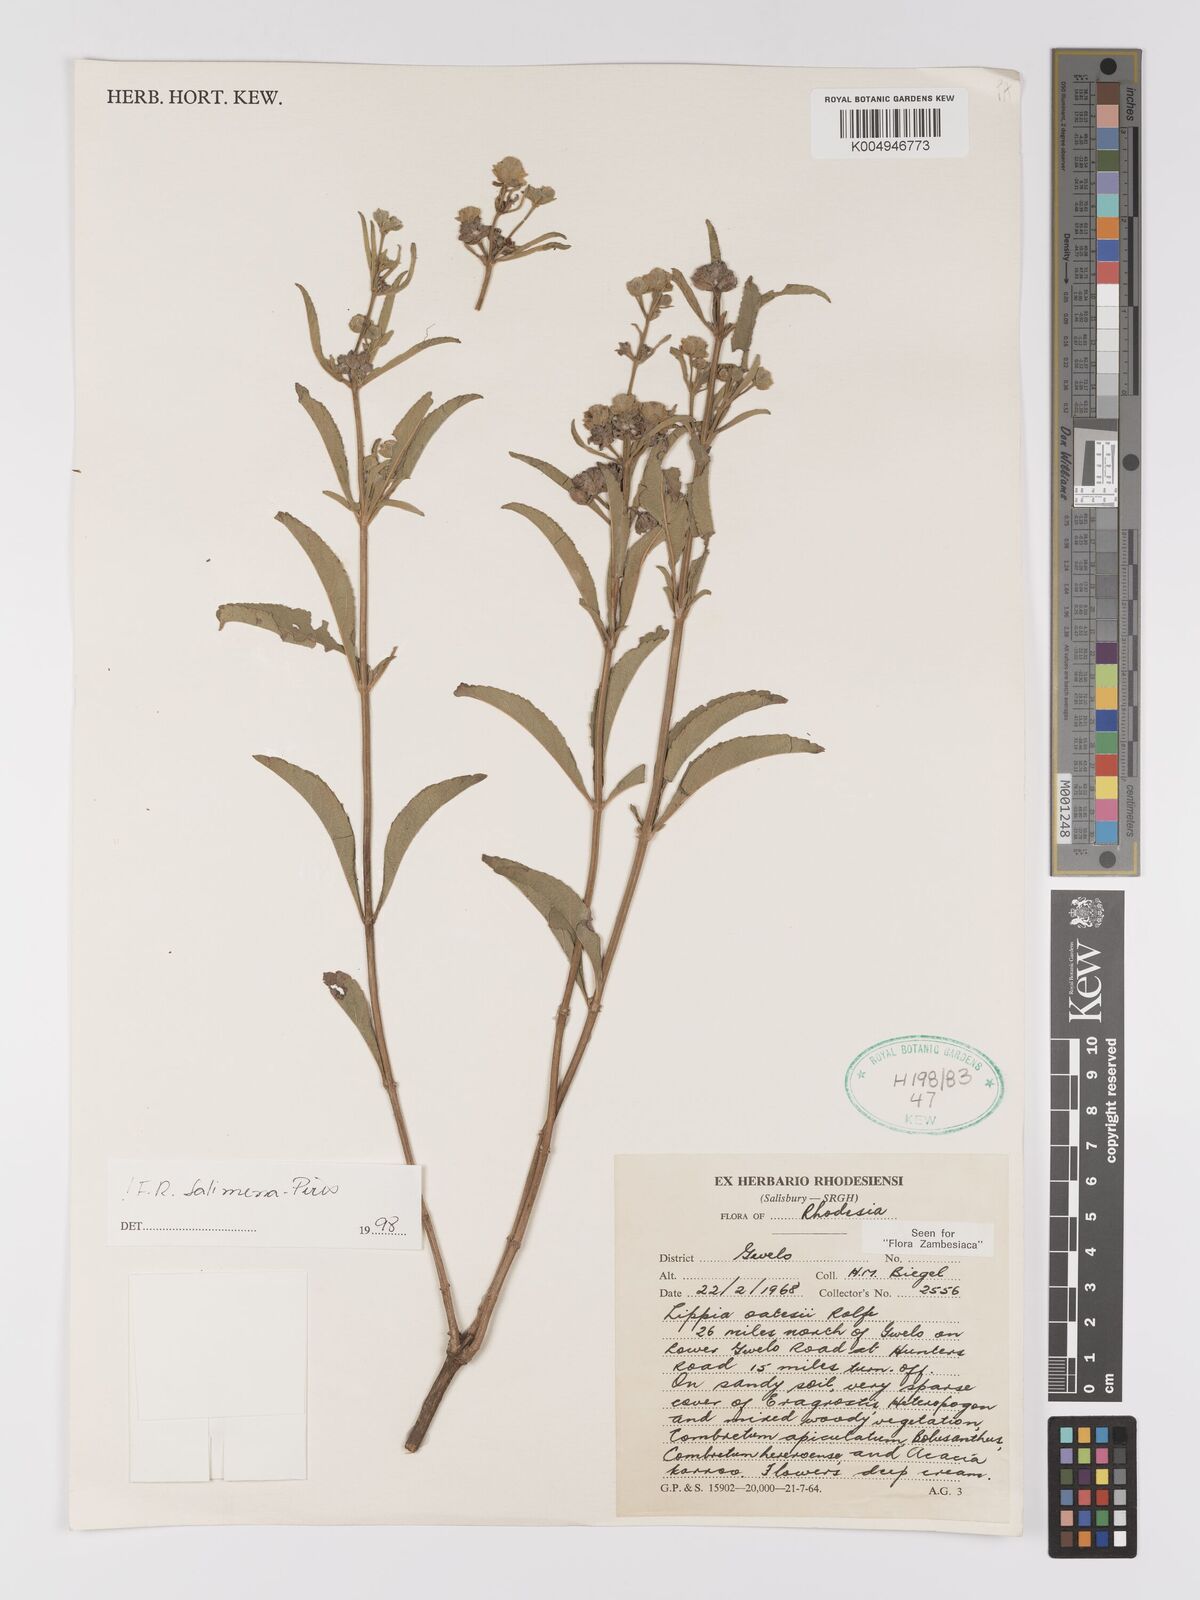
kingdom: Plantae
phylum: Tracheophyta
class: Magnoliopsida
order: Lamiales
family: Verbenaceae
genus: Lippia
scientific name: Lippia oatesii
